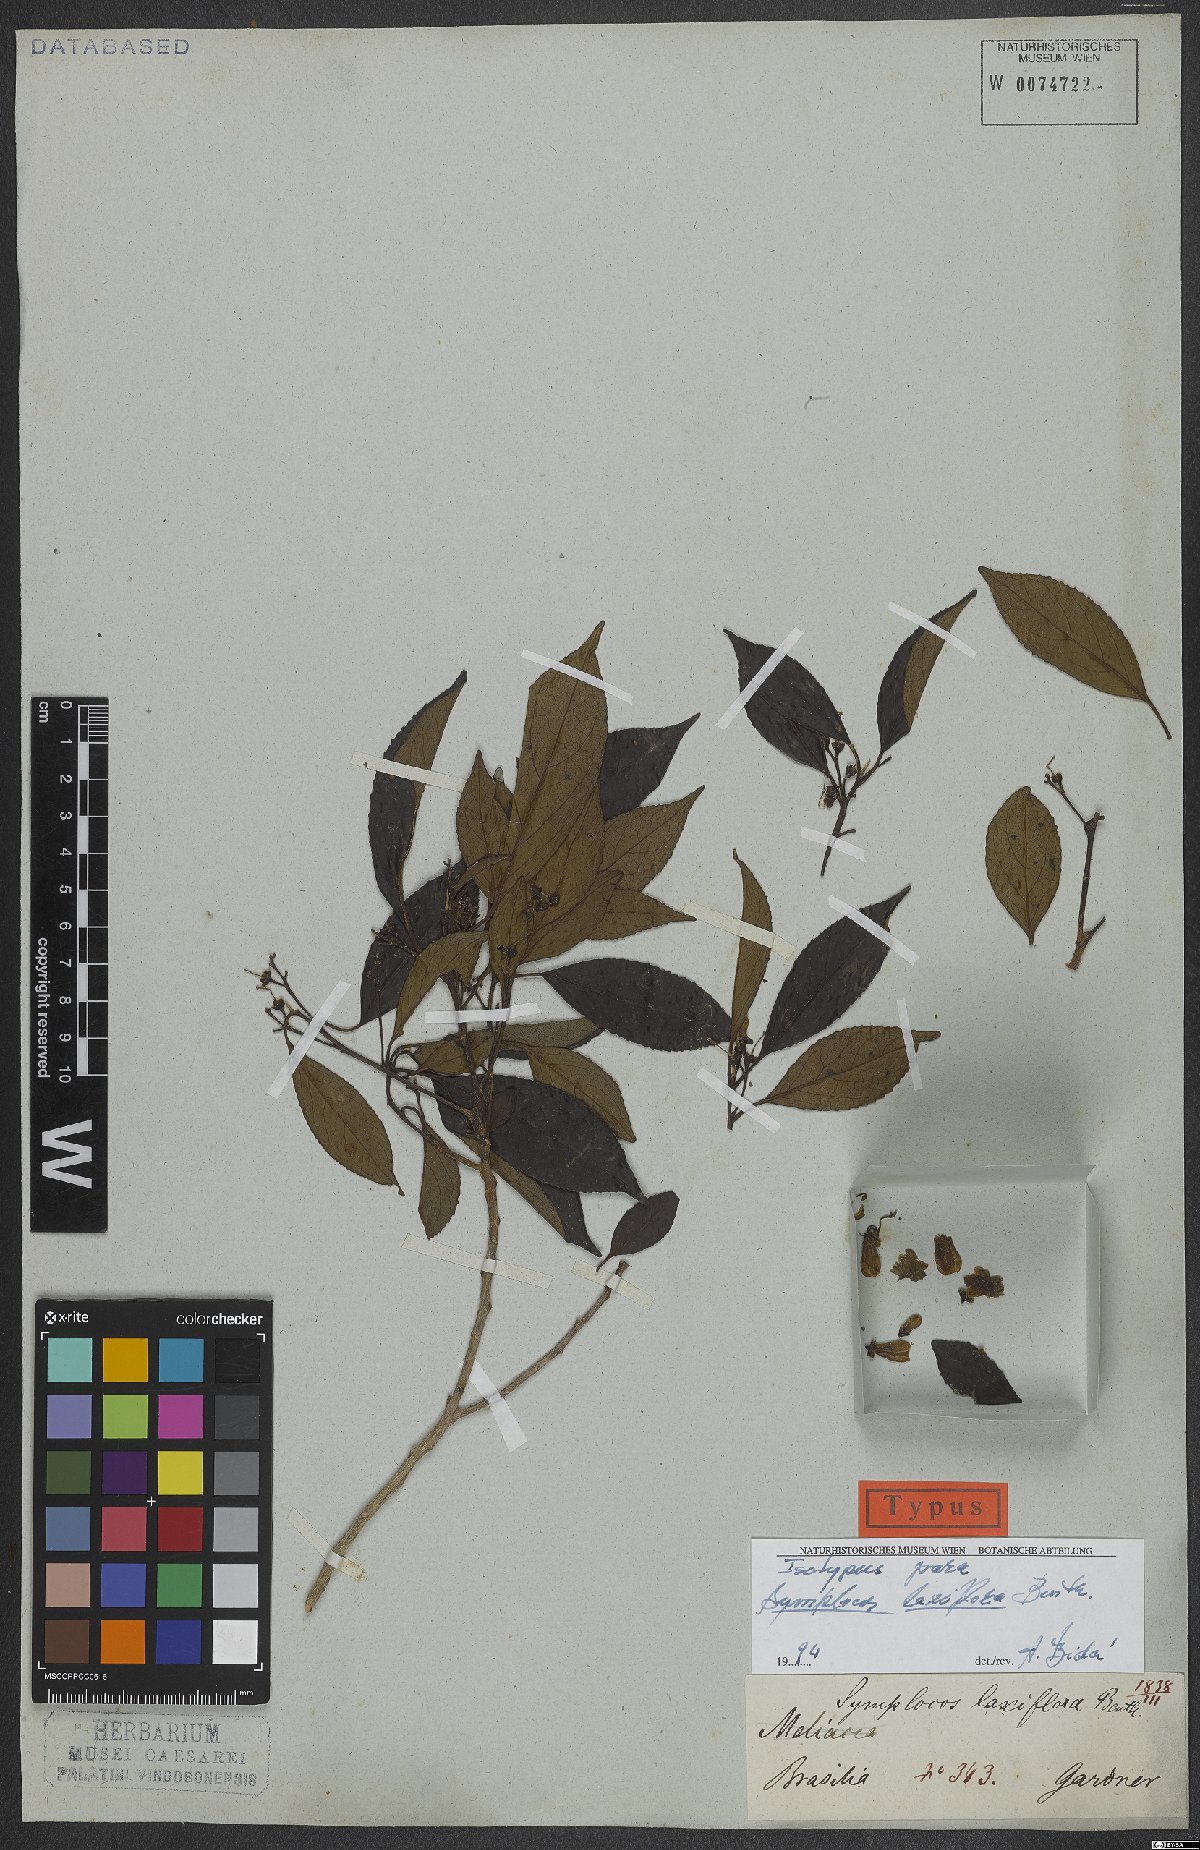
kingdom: Plantae
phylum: Tracheophyta
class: Magnoliopsida
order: Ericales
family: Symplocaceae
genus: Symplocos
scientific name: Symplocos laxiflora
